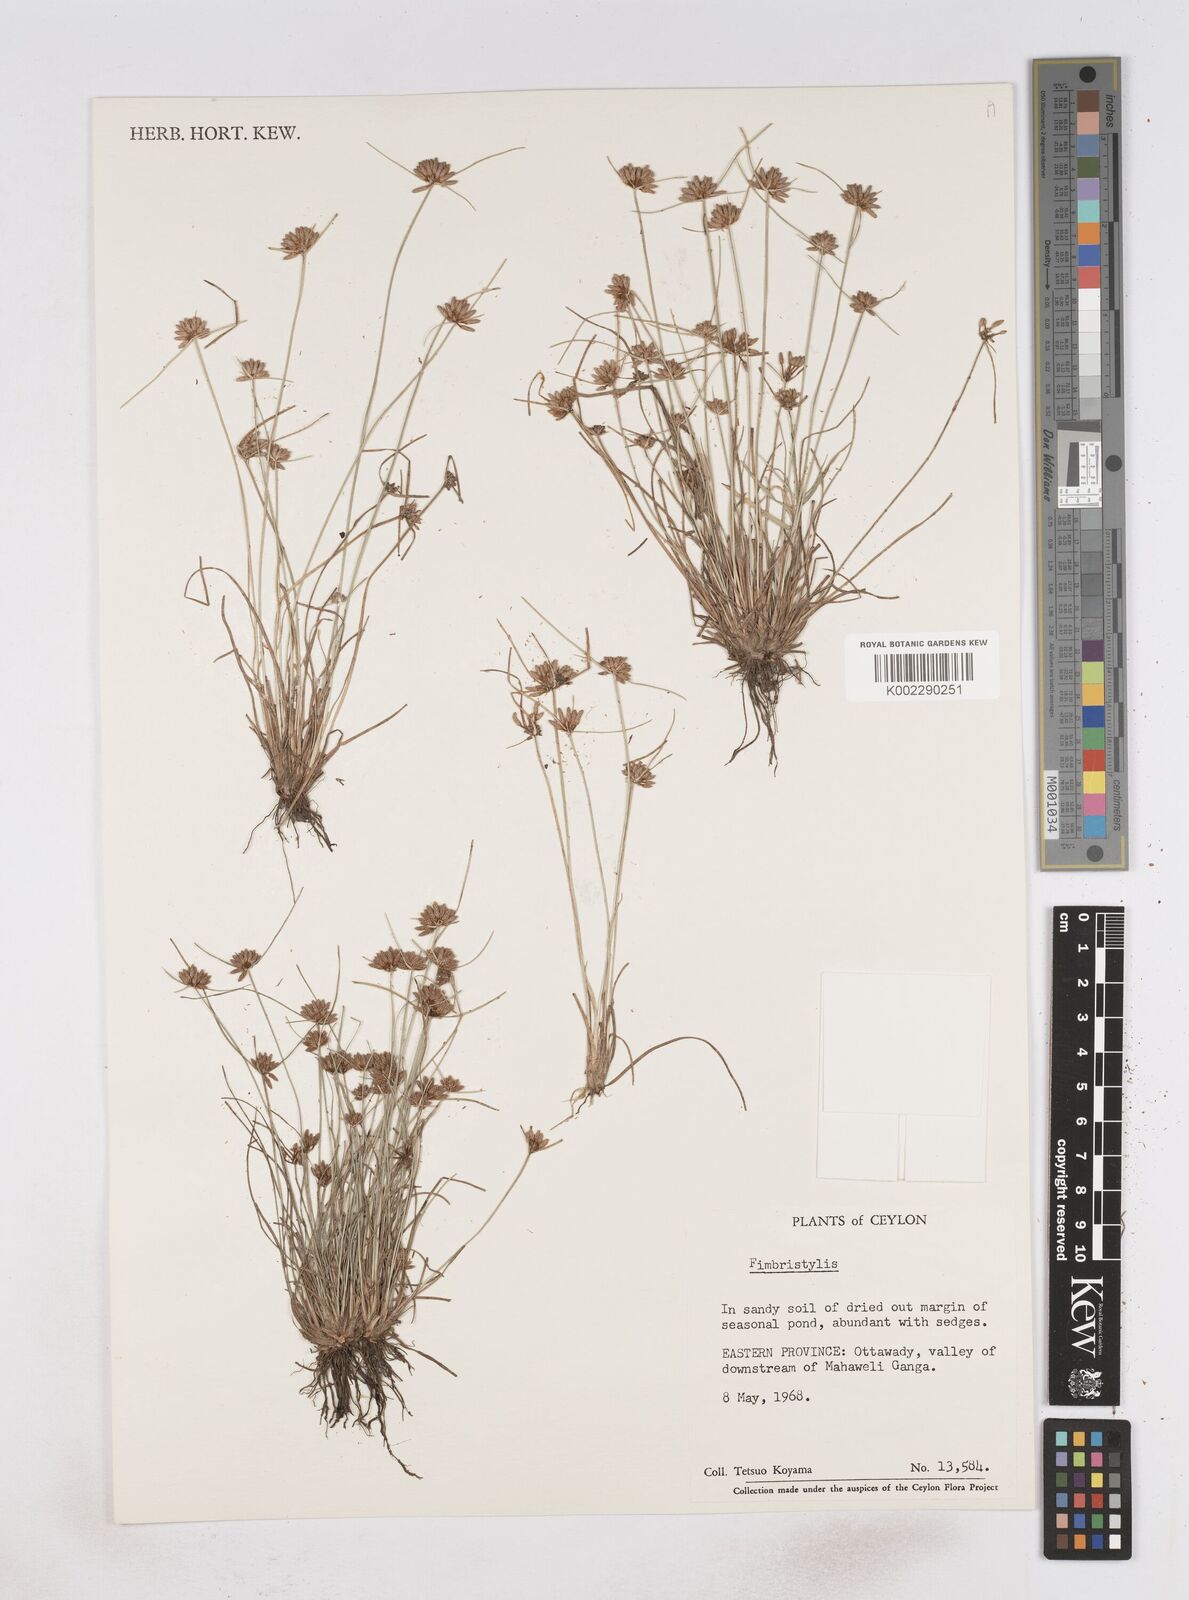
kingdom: Plantae
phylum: Tracheophyta
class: Liliopsida
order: Poales
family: Cyperaceae
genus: Fimbristylis
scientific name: Fimbristylis
